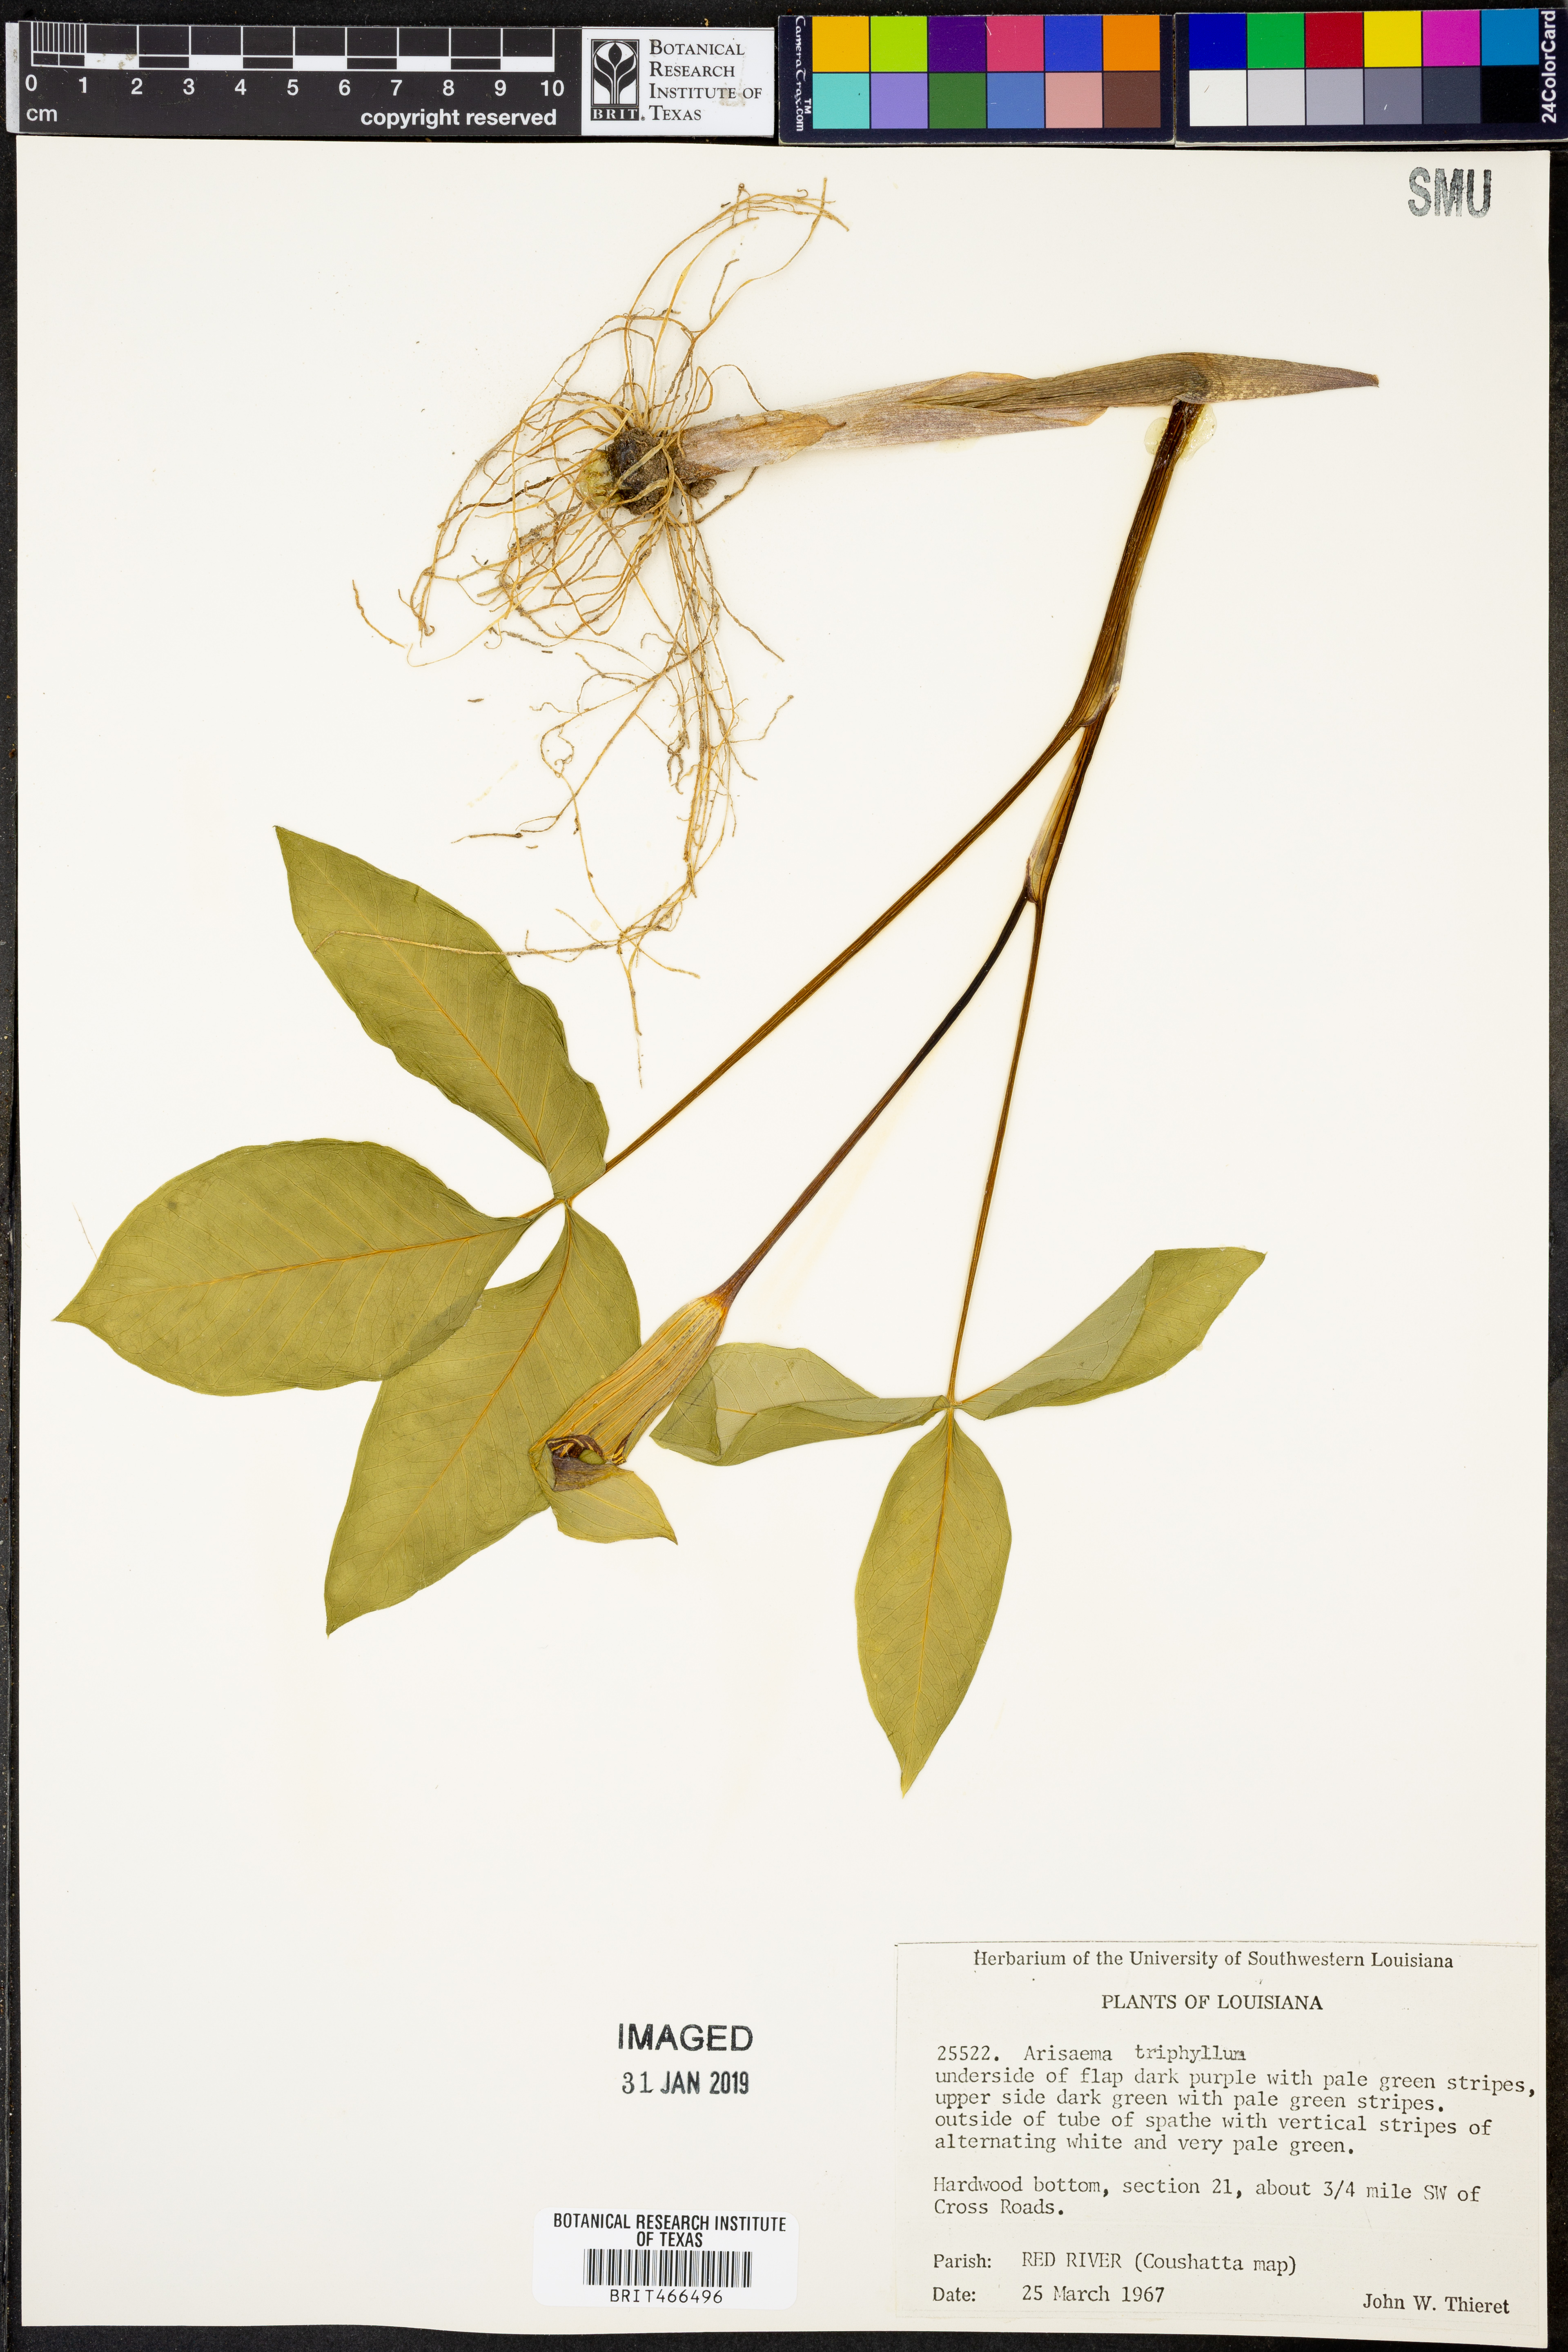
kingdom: Plantae
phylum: Tracheophyta
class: Liliopsida
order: Alismatales
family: Araceae
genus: Arisaema
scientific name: Arisaema triphyllum
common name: Jack-in-the-pulpit
